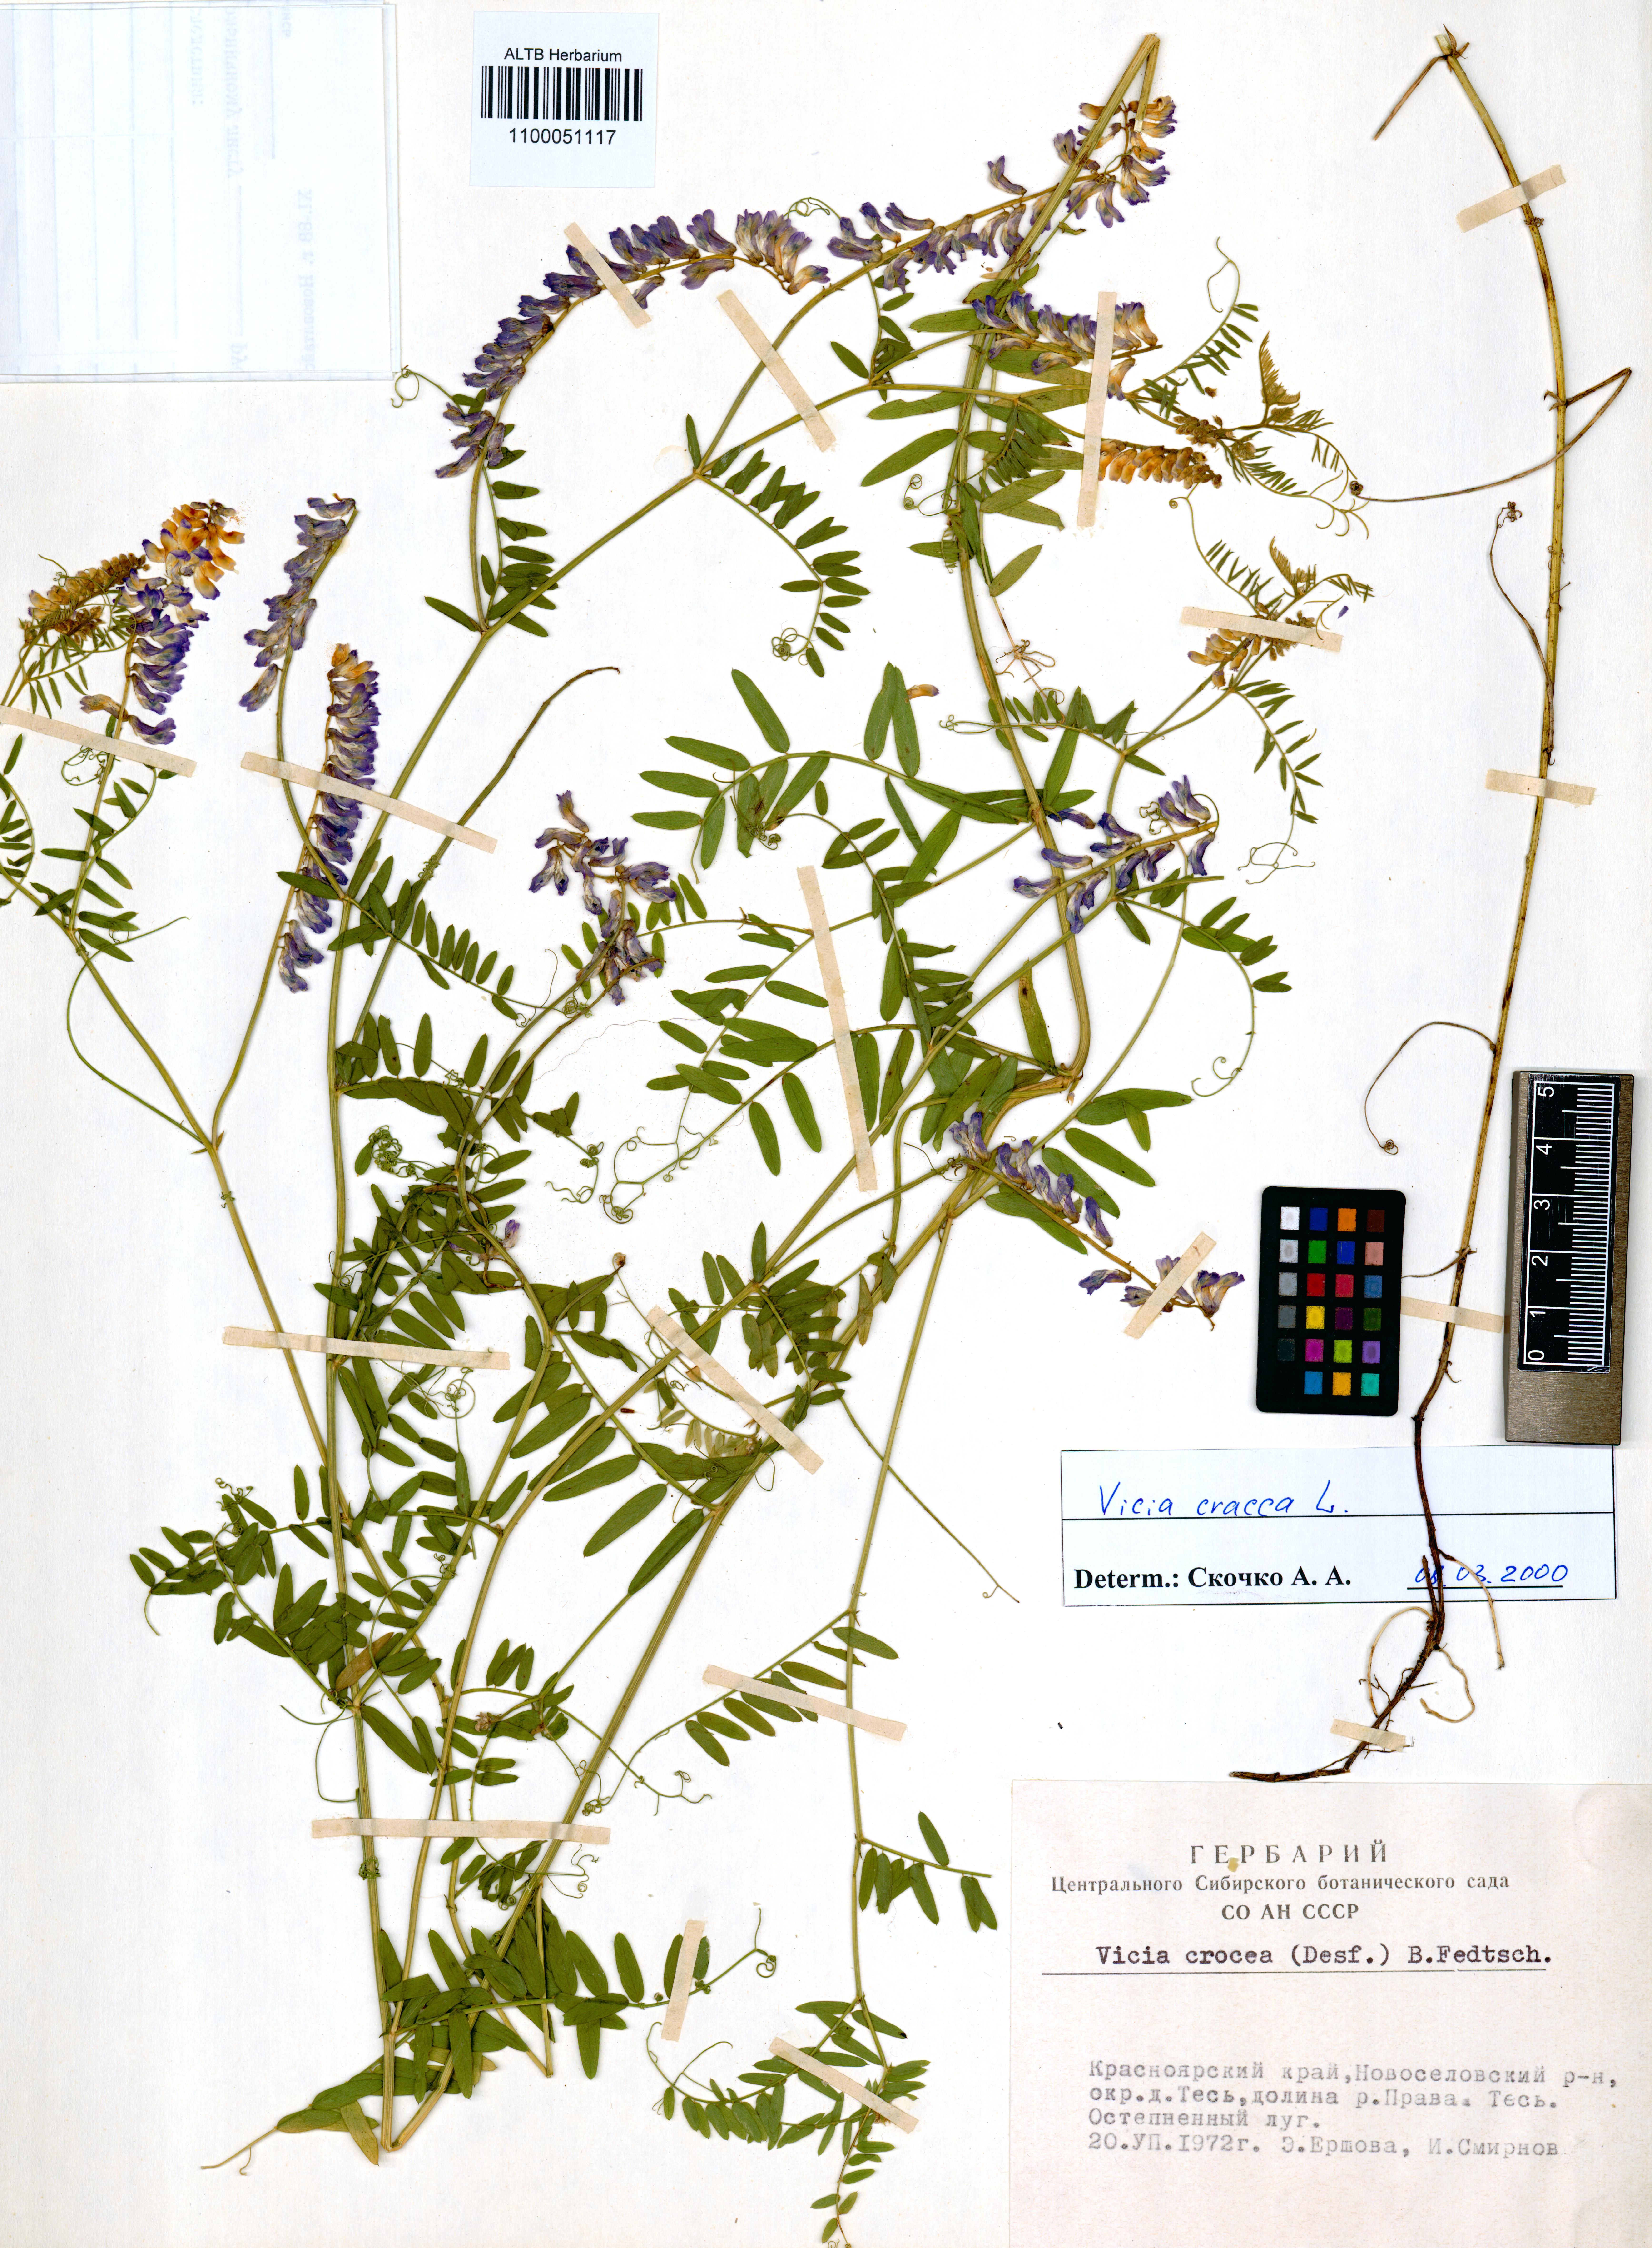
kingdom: Plantae
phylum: Tracheophyta
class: Magnoliopsida
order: Fabales
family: Fabaceae
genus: Vicia
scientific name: Vicia cracca
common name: Bird vetch
